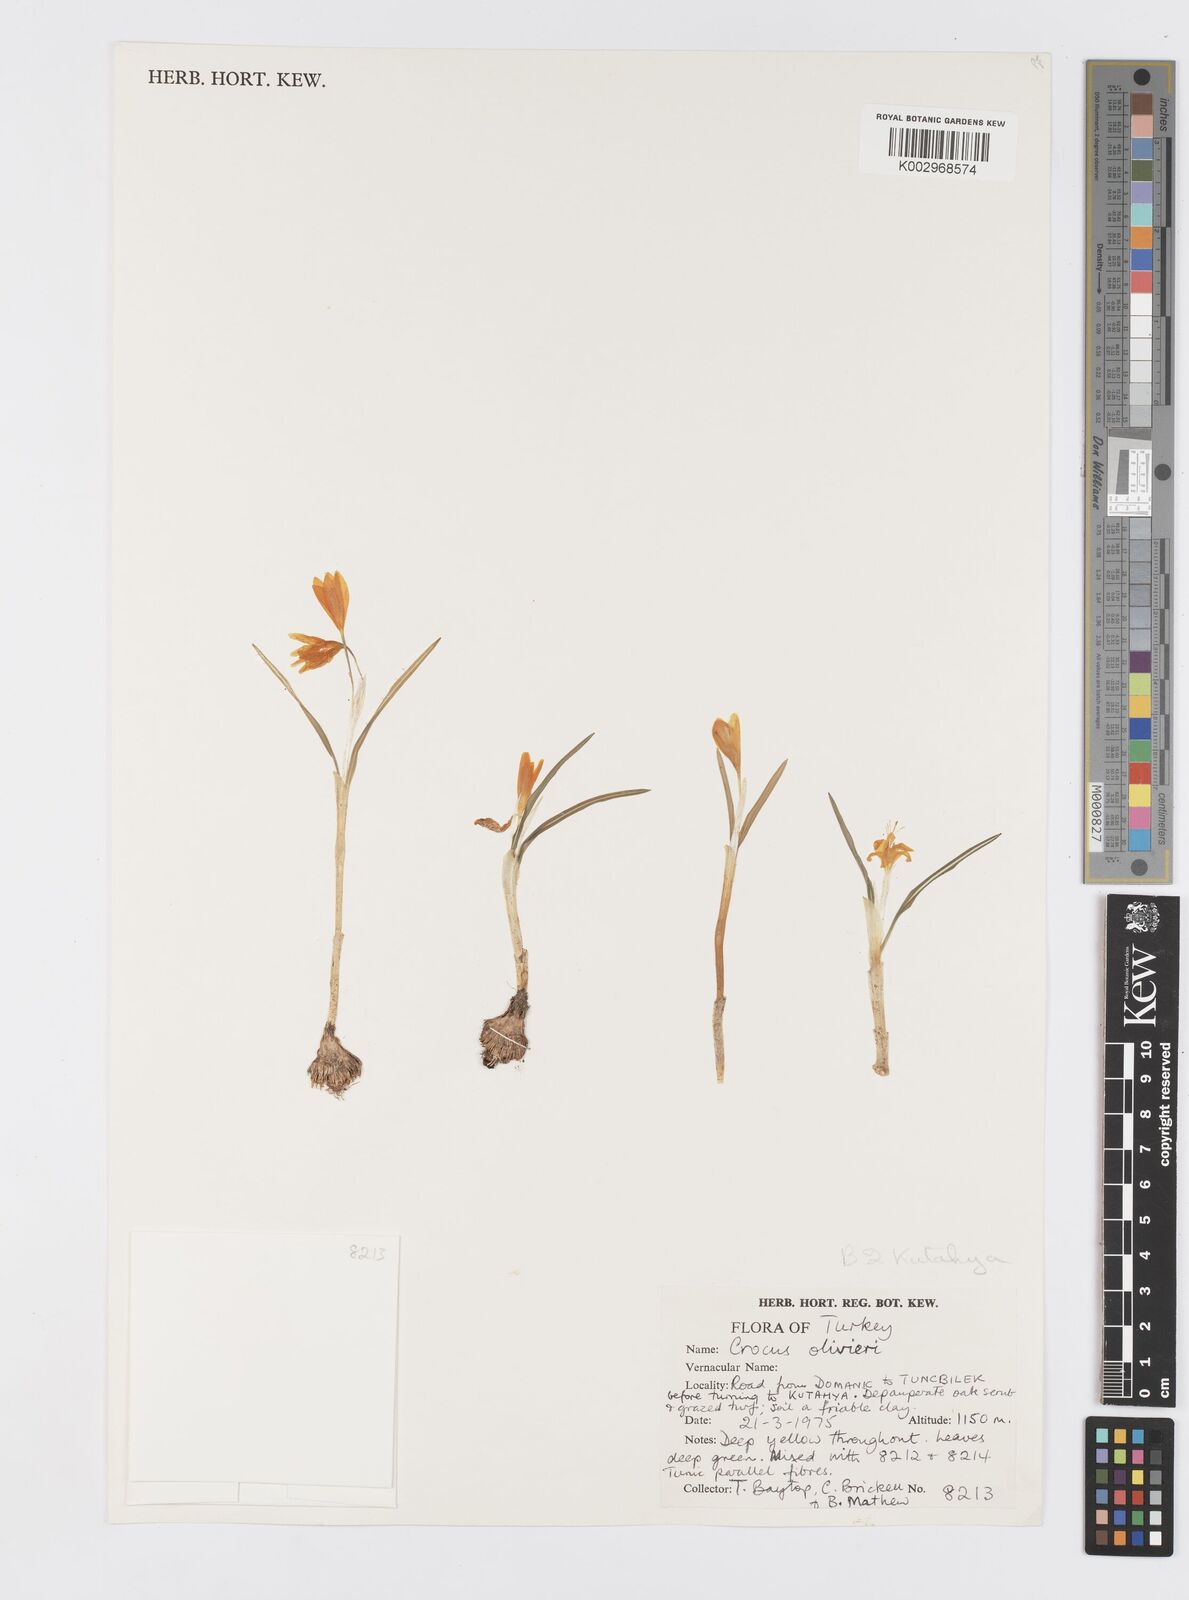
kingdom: Plantae
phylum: Tracheophyta
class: Liliopsida
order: Asparagales
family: Iridaceae
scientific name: Iridaceae
